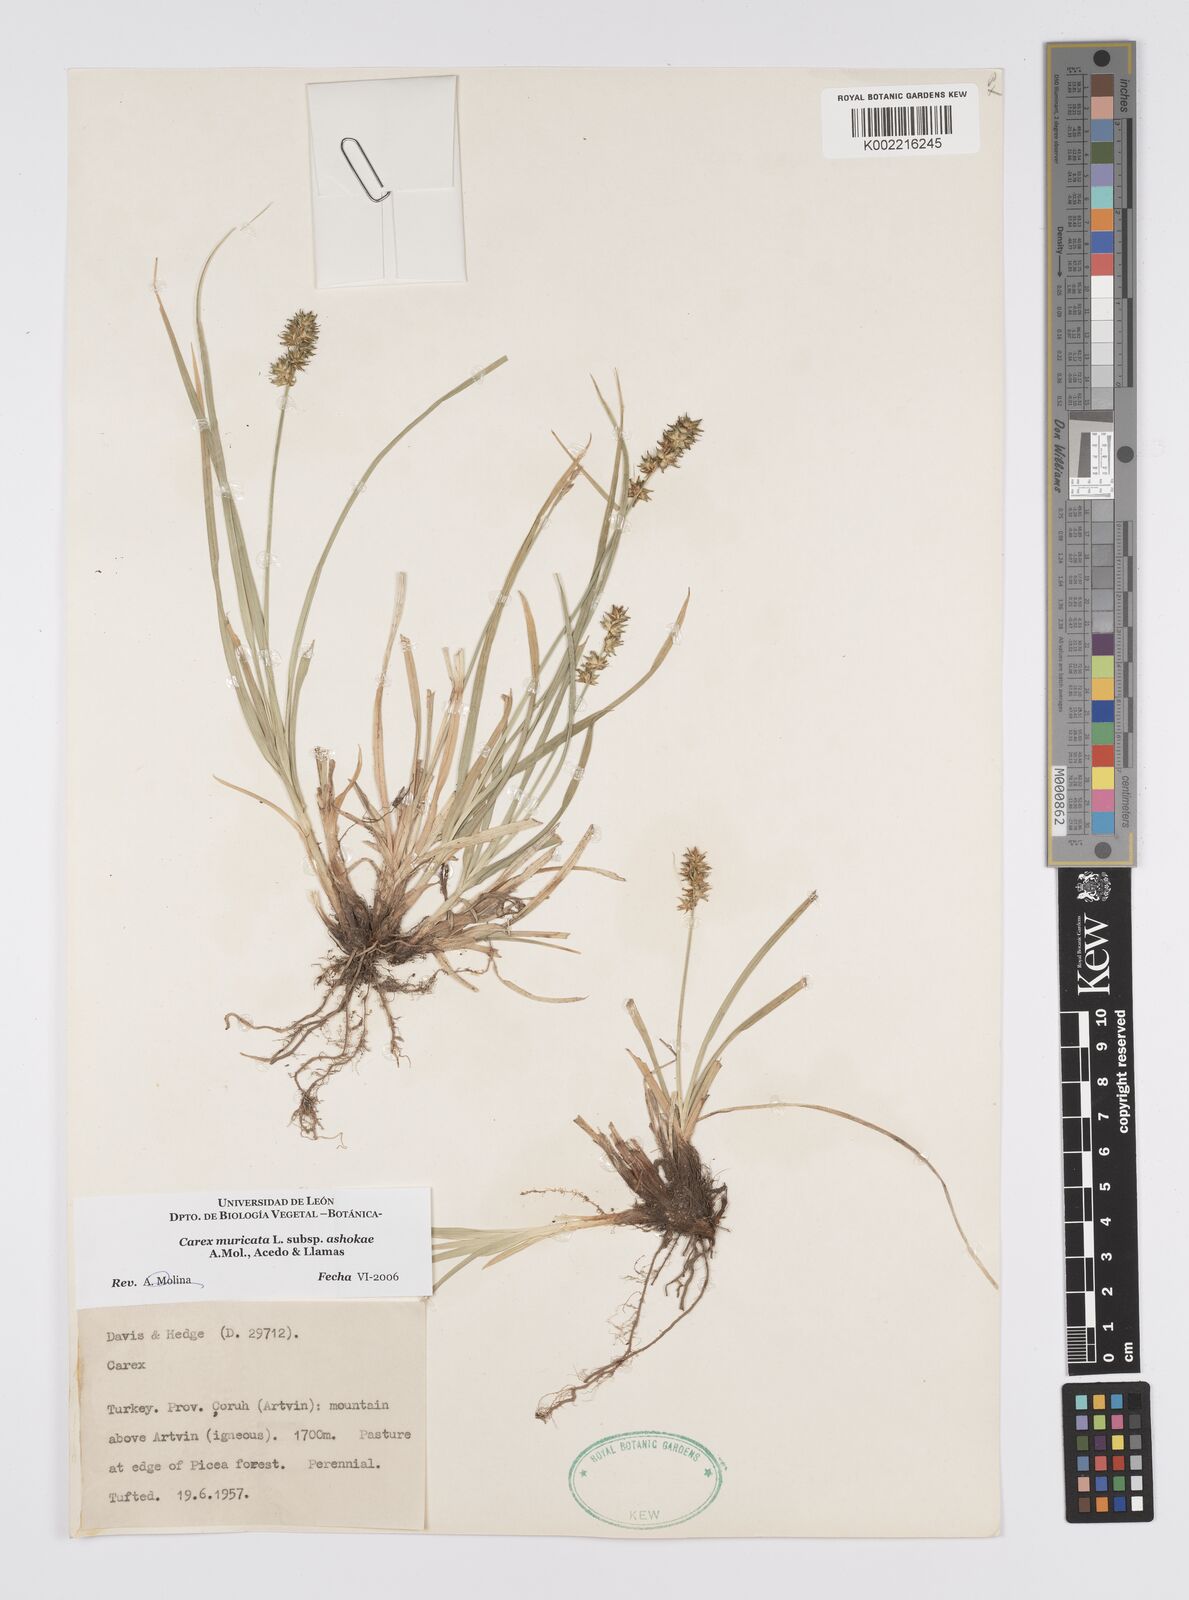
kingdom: Plantae
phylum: Tracheophyta
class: Liliopsida
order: Poales
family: Cyperaceae
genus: Carex
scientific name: Carex muricata
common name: Rough sedge
